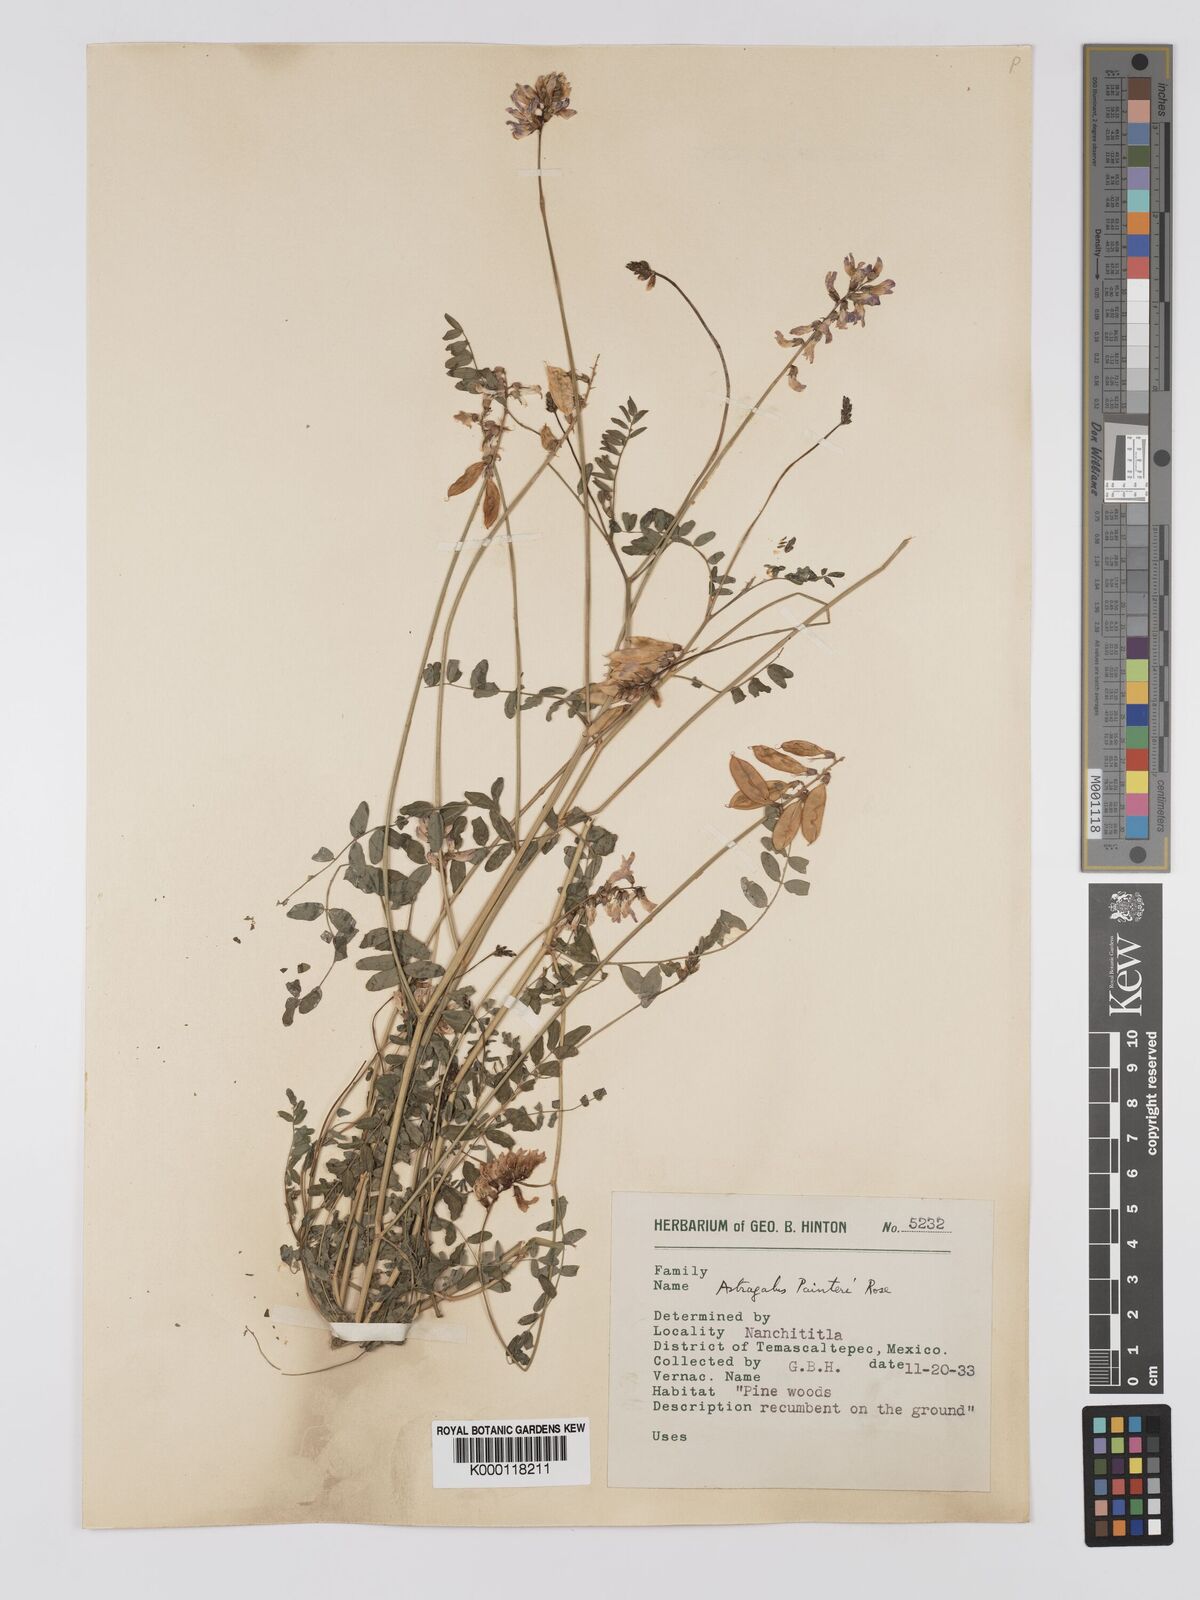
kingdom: Plantae
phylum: Tracheophyta
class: Magnoliopsida
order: Fabales
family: Fabaceae
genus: Astragalus
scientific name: Astragalus
